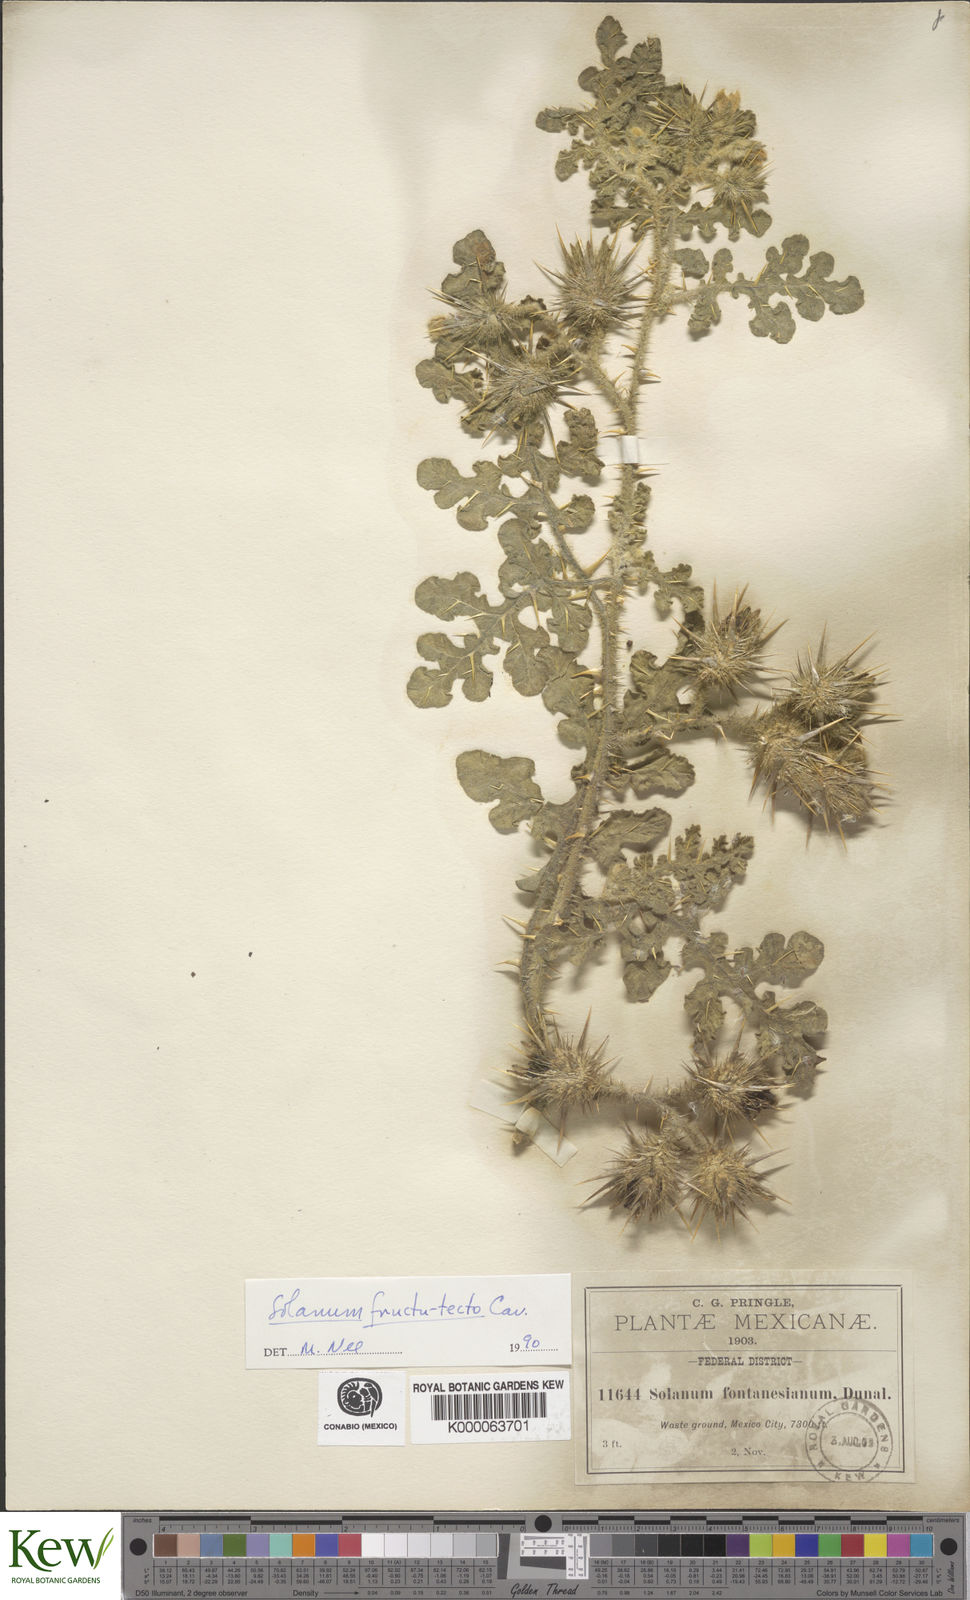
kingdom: Plantae
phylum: Tracheophyta
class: Magnoliopsida
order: Solanales
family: Solanaceae
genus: Solanum
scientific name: Solanum tectum
